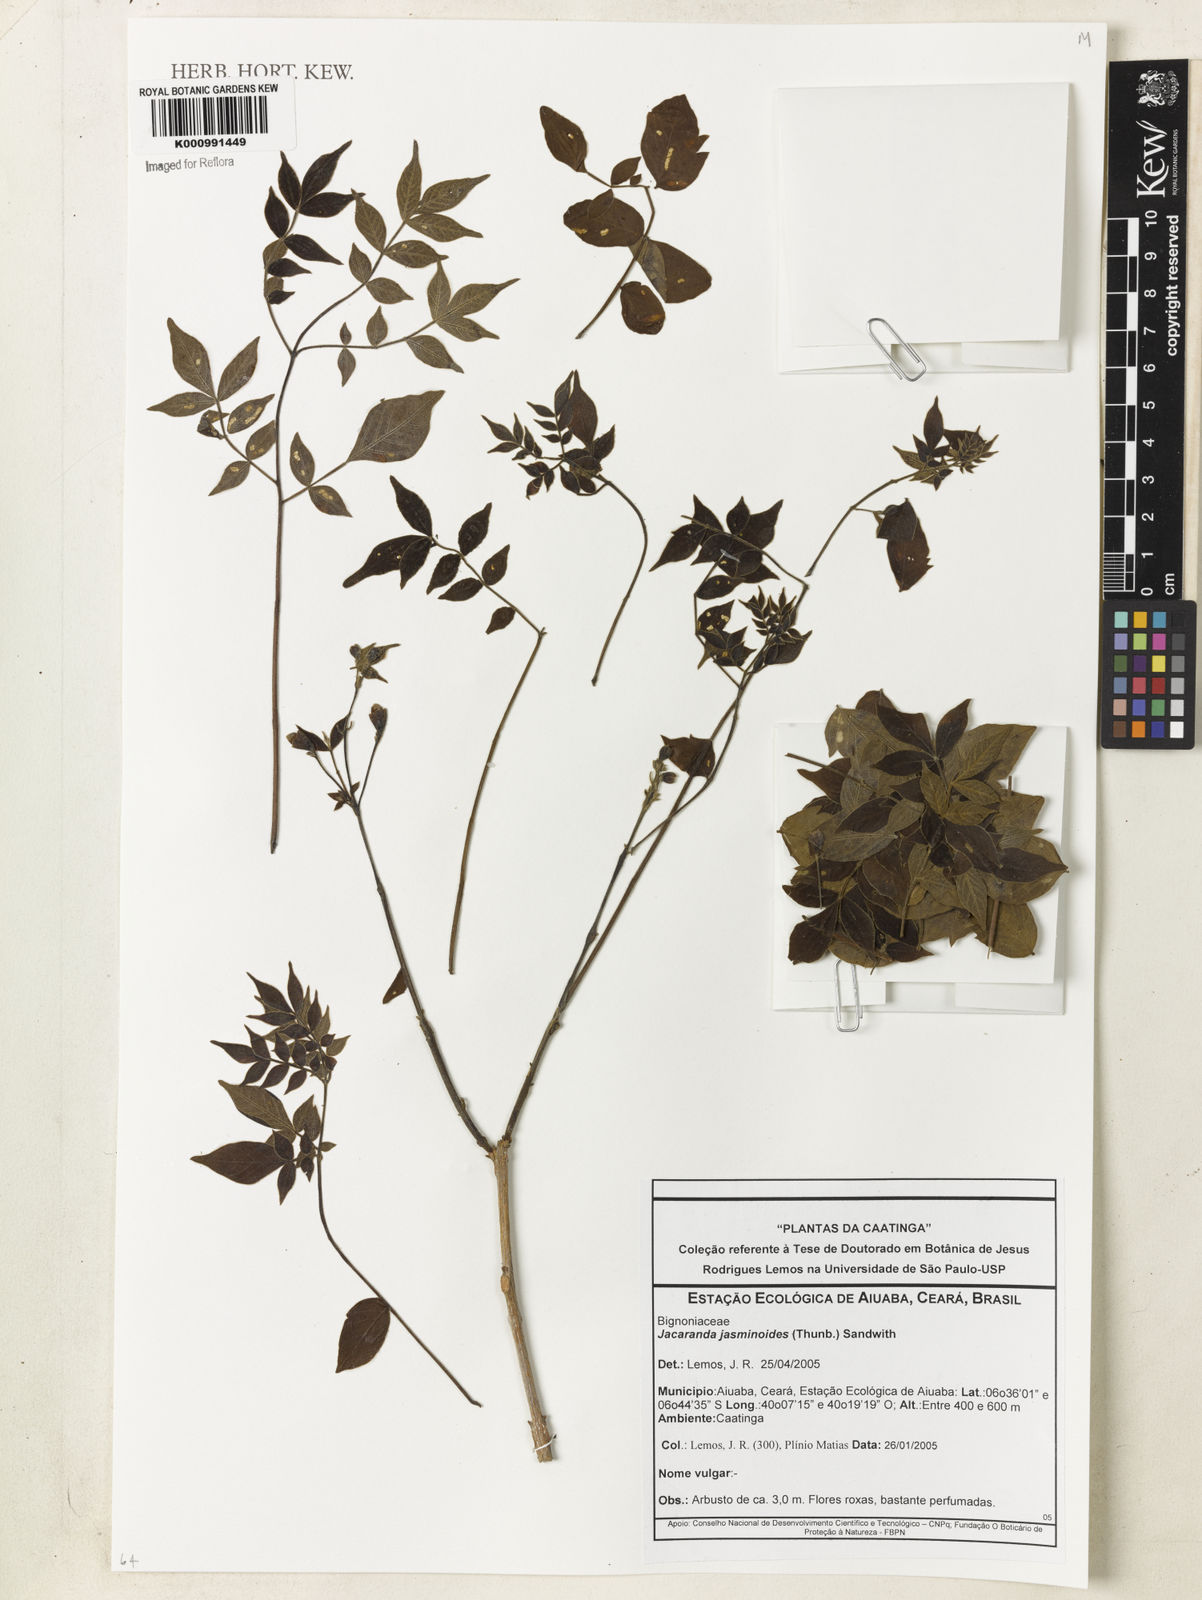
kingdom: Plantae
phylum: Tracheophyta
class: Magnoliopsida
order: Lamiales
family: Bignoniaceae
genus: Jacaranda
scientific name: Jacaranda jasminoides
